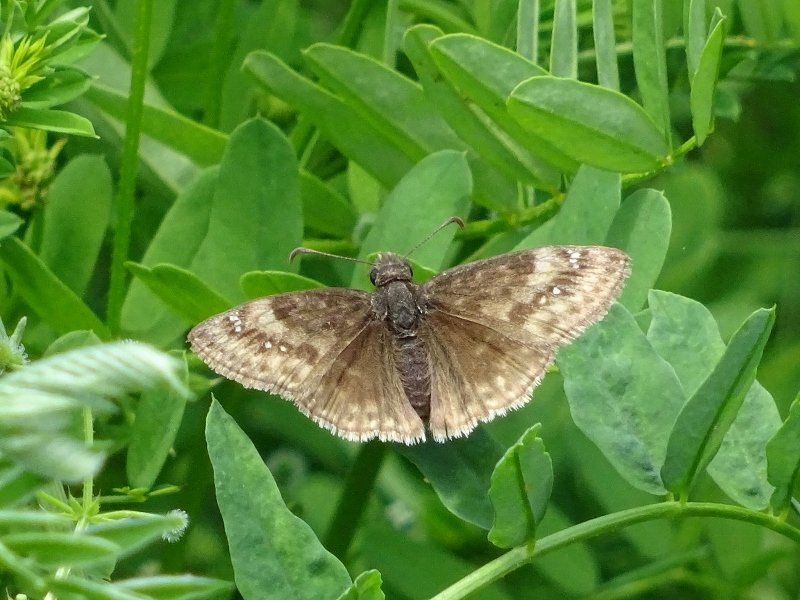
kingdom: Animalia
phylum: Arthropoda
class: Insecta
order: Lepidoptera
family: Hesperiidae
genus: Gesta
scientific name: Gesta
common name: Wild Indigo Duskywing
